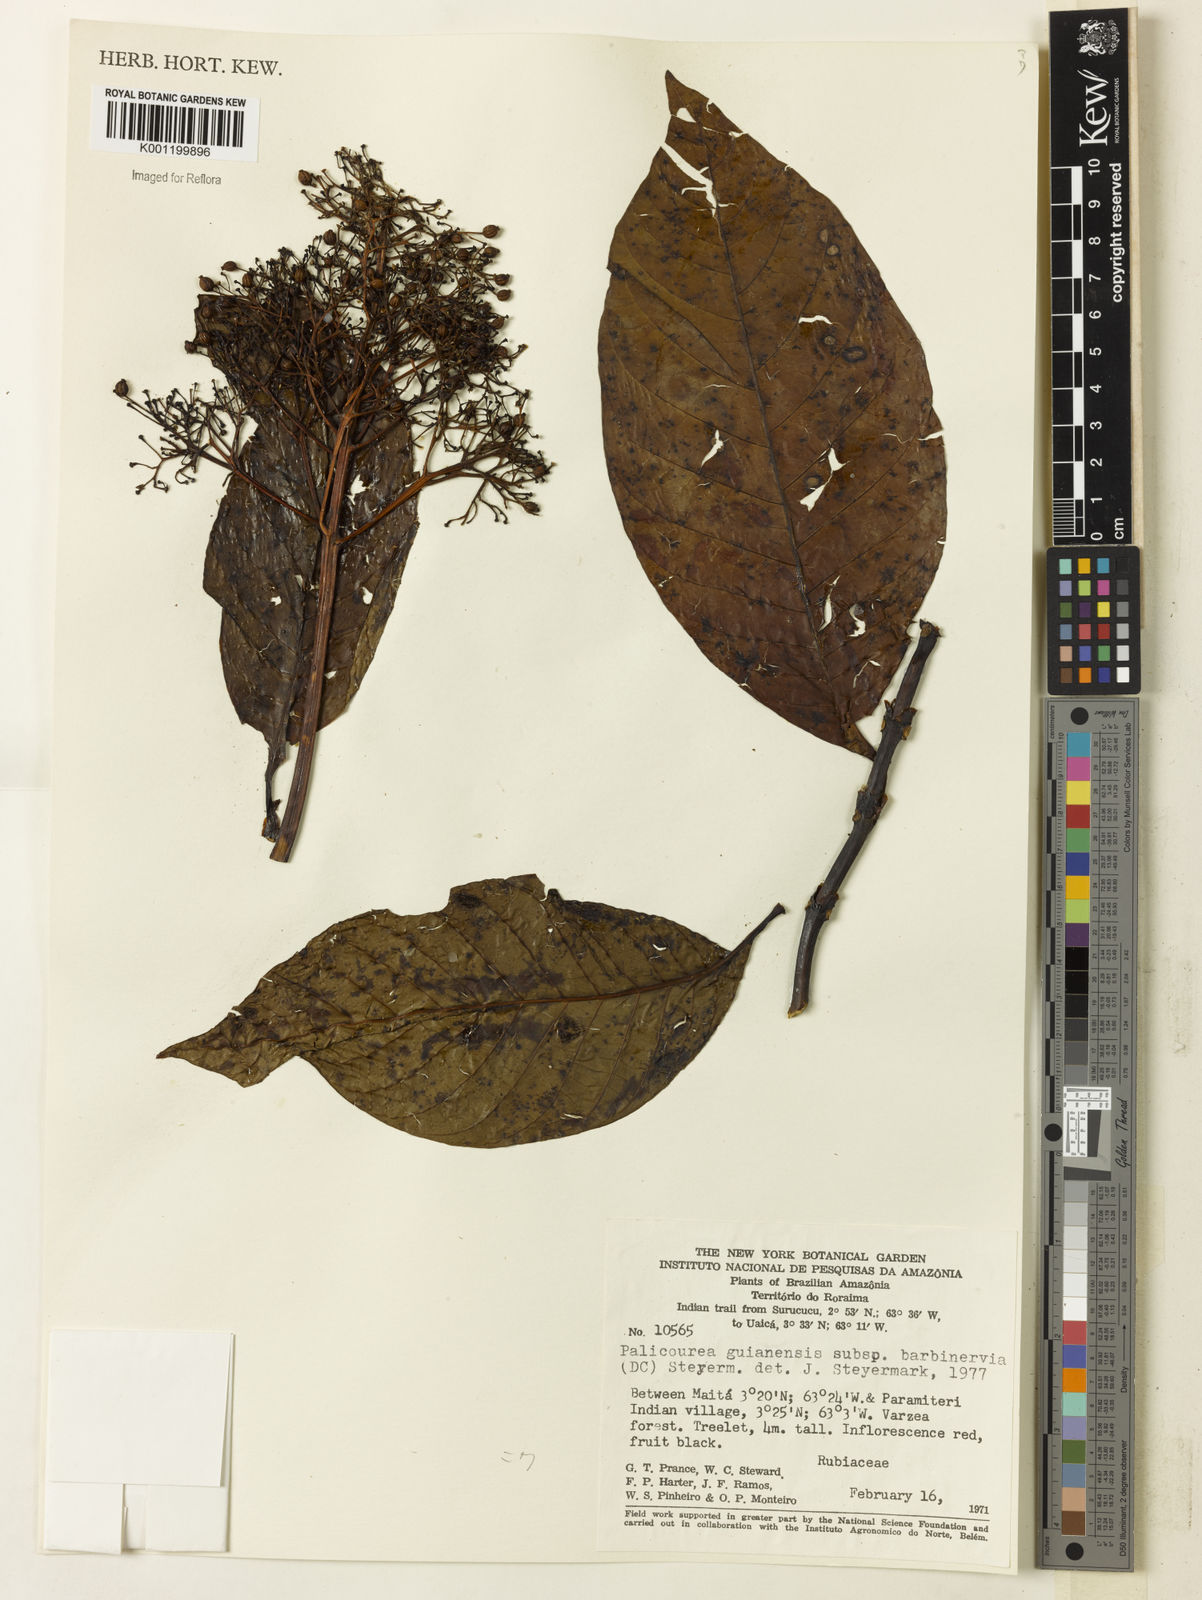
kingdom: Plantae
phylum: Tracheophyta
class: Magnoliopsida
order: Gentianales
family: Rubiaceae
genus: Palicourea
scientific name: Palicourea guianensis
